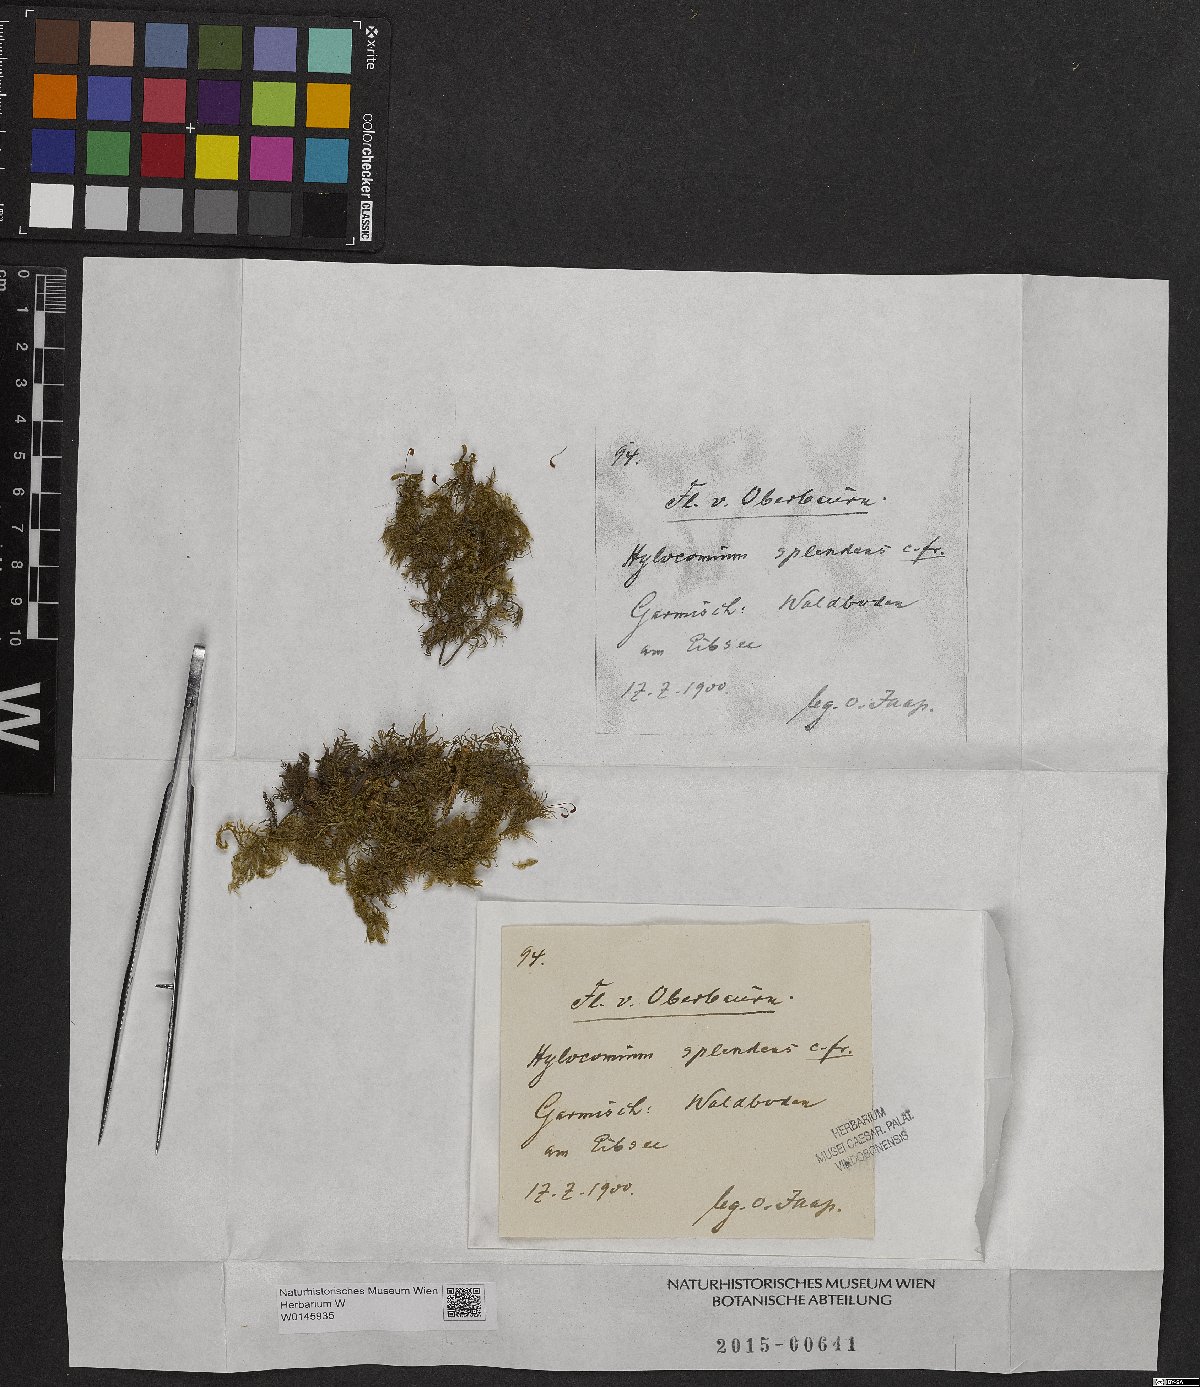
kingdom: Plantae
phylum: Bryophyta
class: Bryopsida
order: Hypnales
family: Hylocomiaceae
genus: Hylocomium
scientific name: Hylocomium splendens
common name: Stairstep moss
